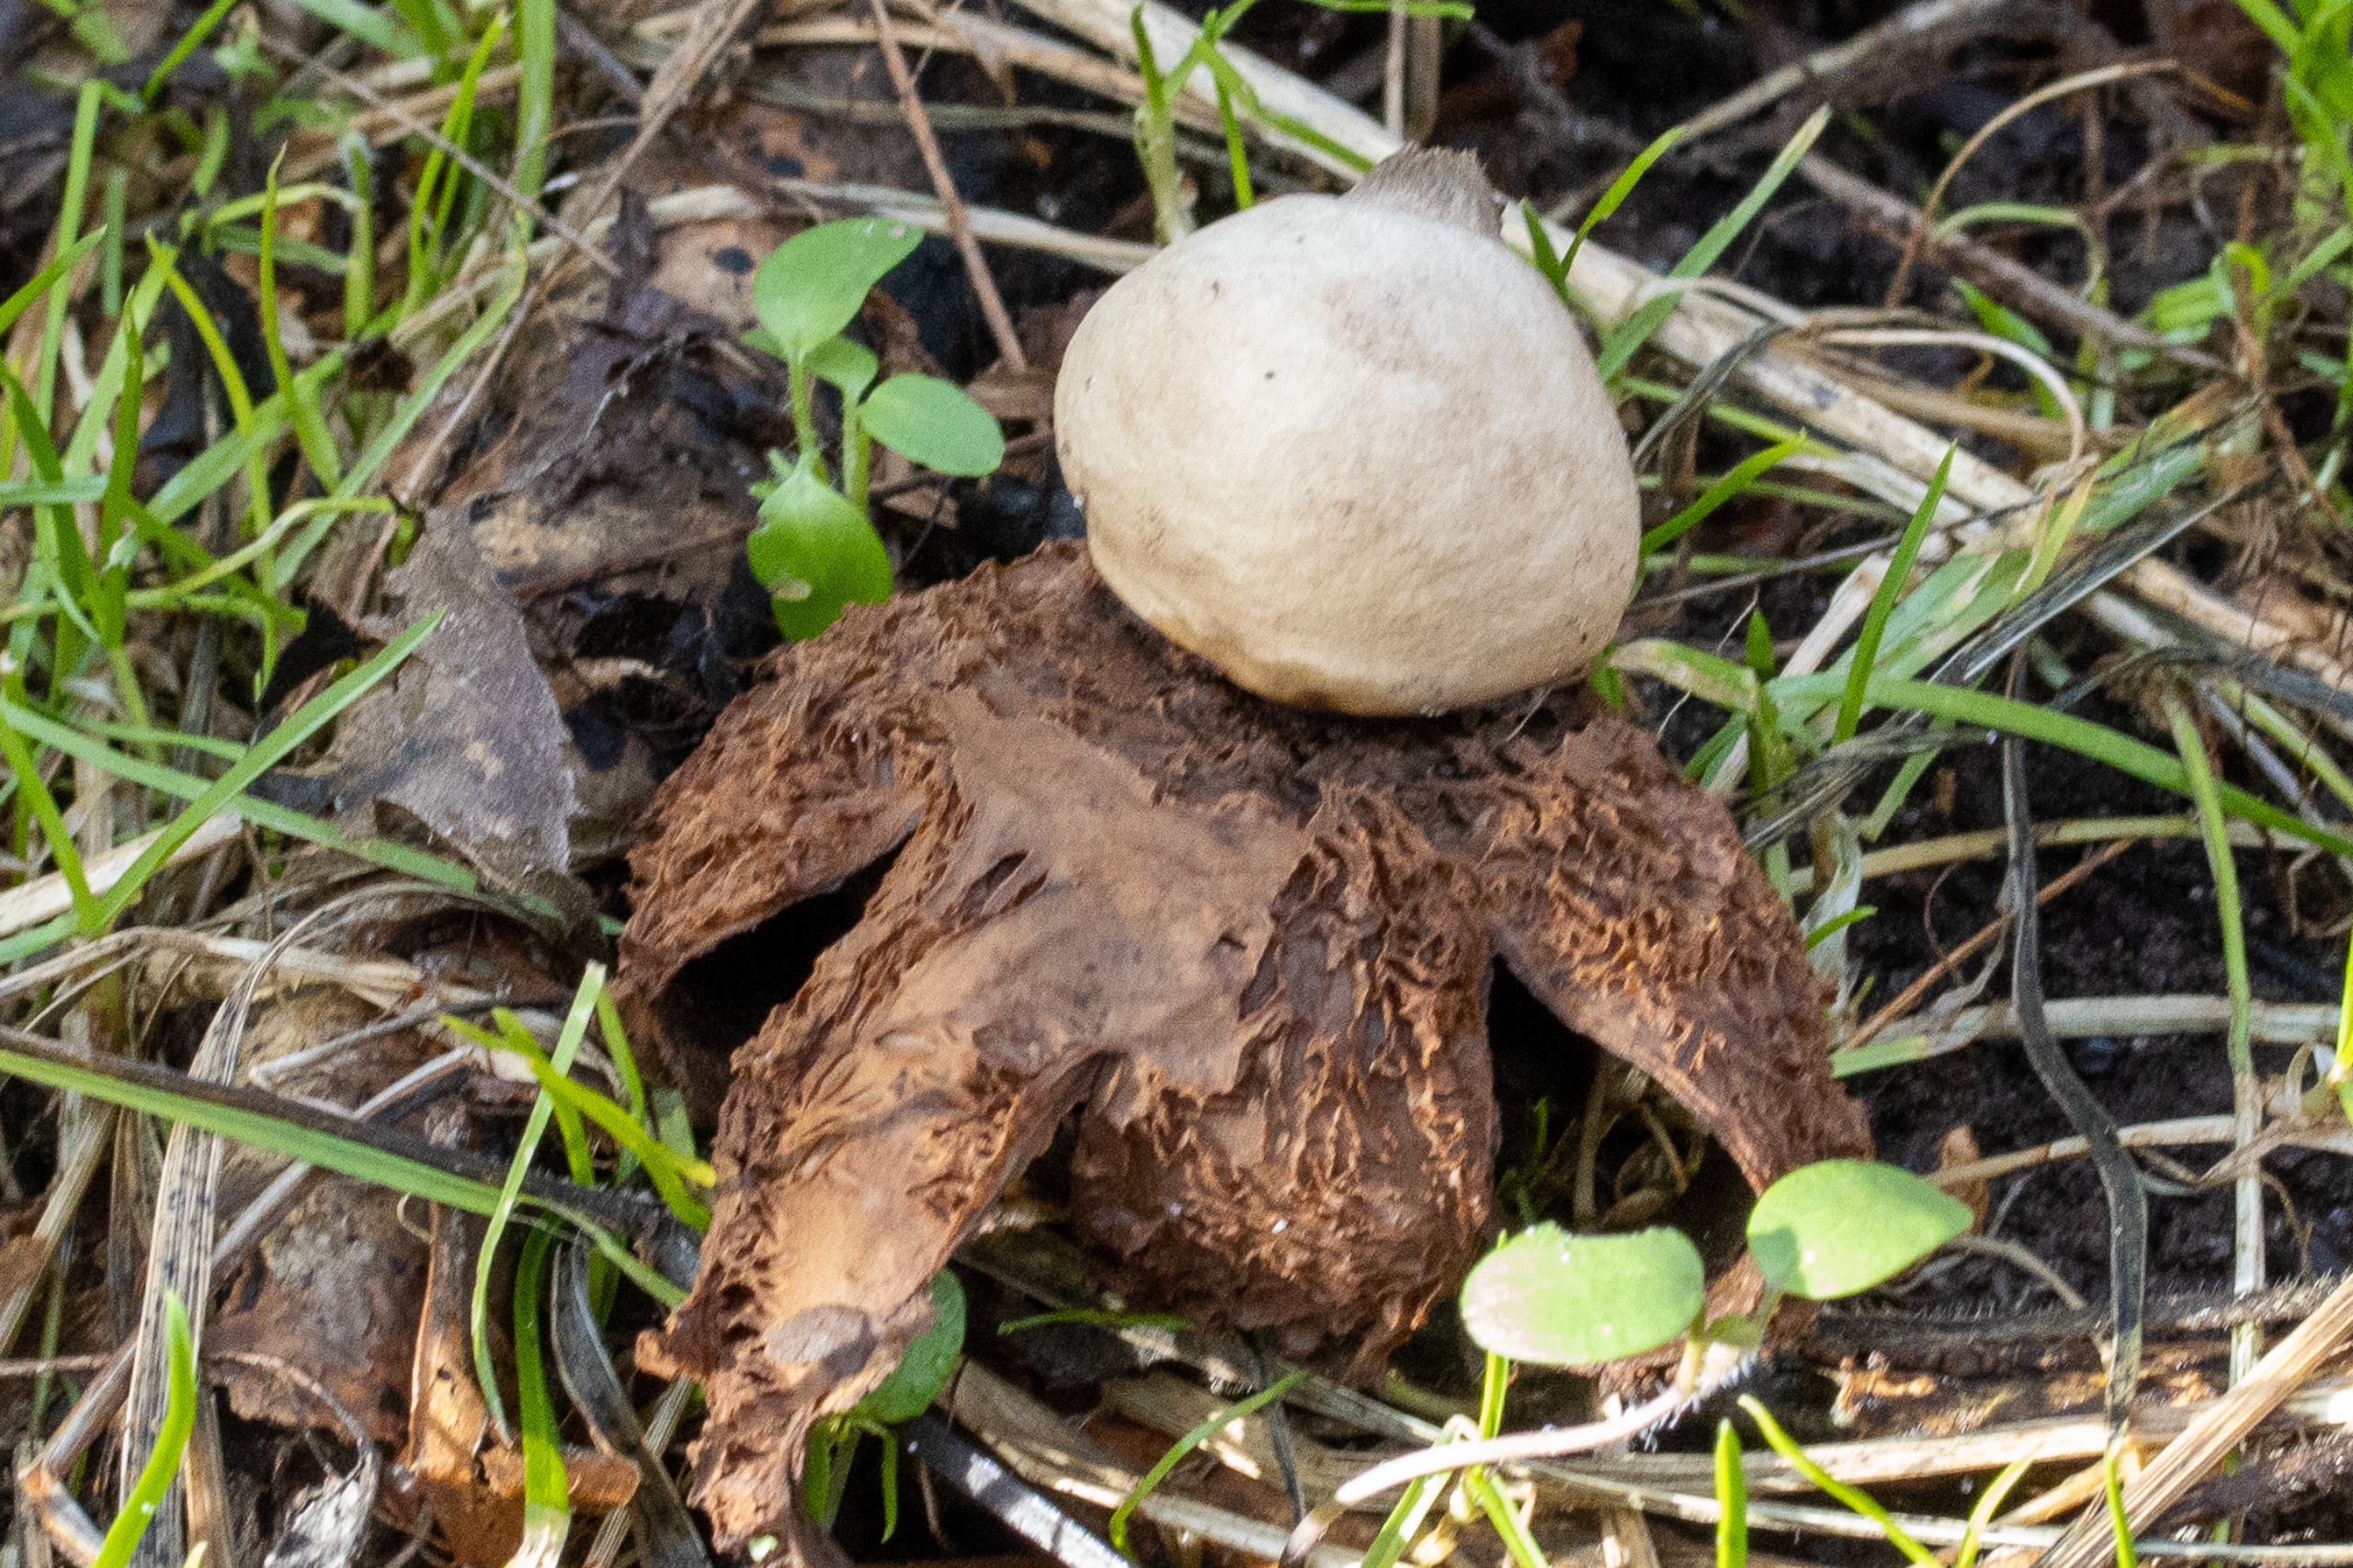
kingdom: Fungi
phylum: Basidiomycota
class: Agaricomycetes
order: Geastrales
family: Geastraceae
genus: Geastrum
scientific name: Geastrum michelianum
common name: Kødet stjernebold
